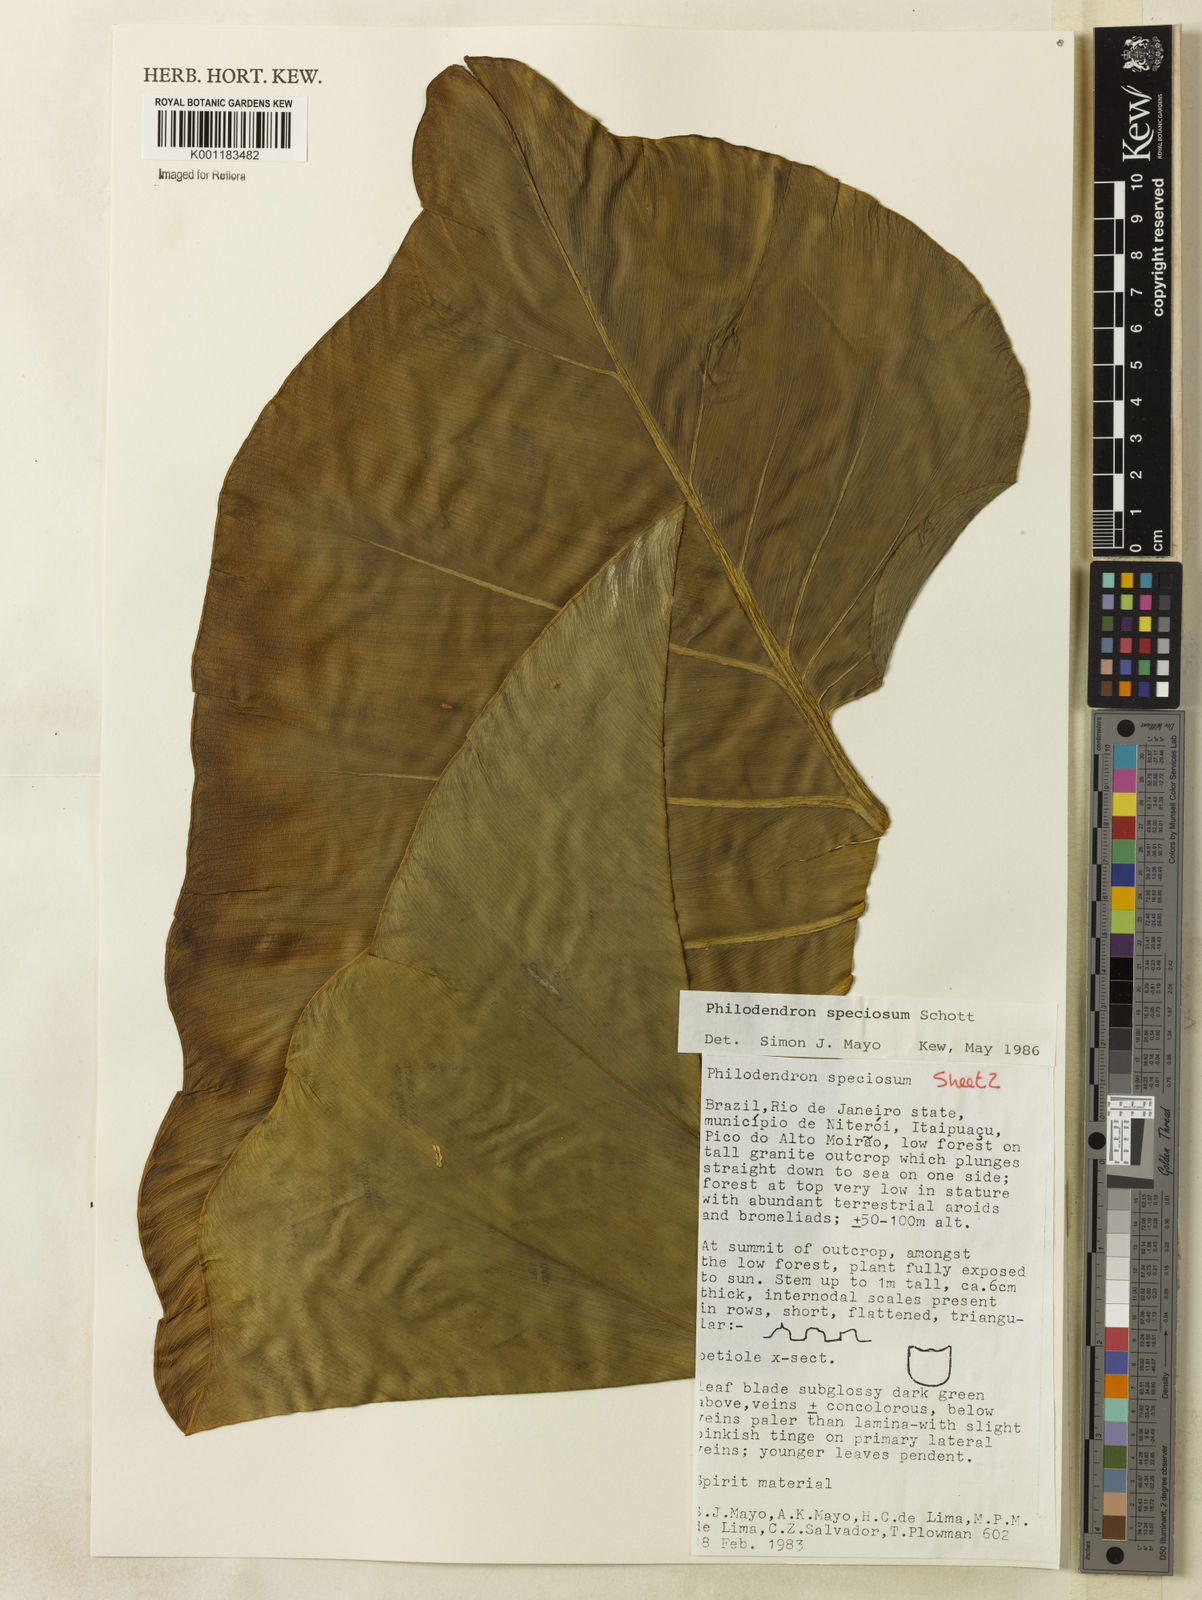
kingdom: Plantae
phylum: Tracheophyta
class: Liliopsida
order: Alismatales
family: Araceae
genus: Thaumatophyllum
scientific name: Thaumatophyllum speciosum
